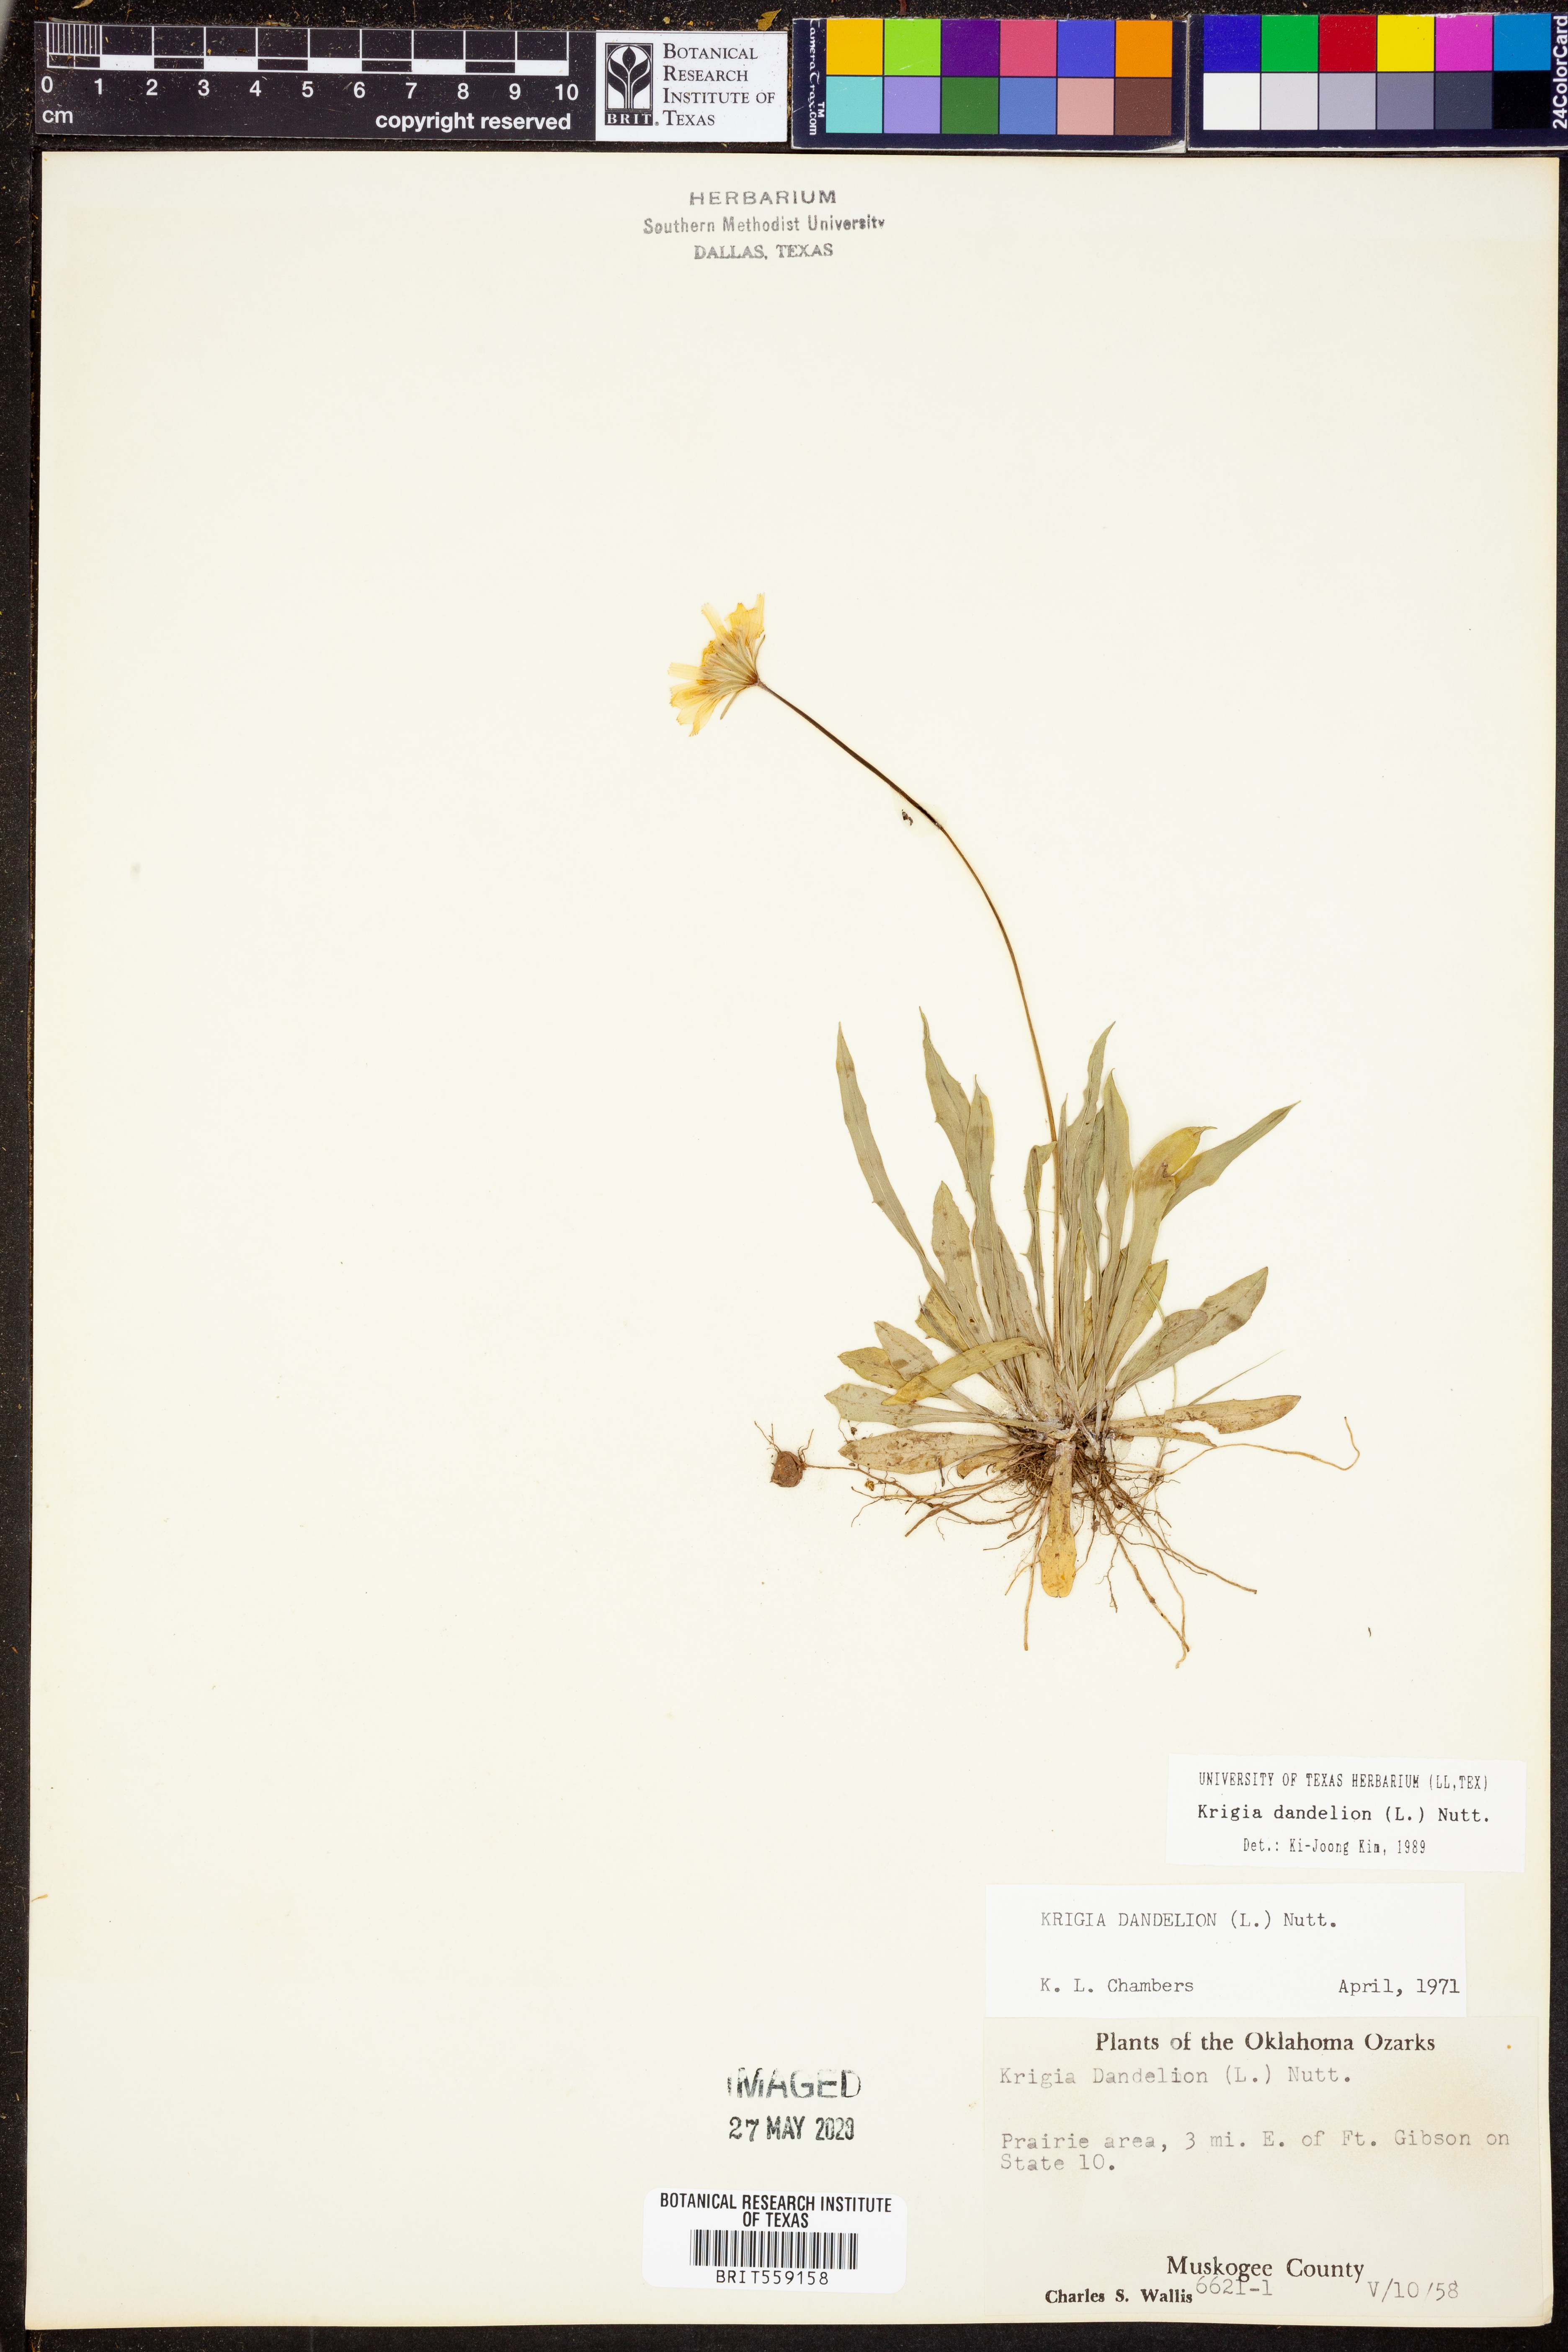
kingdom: Plantae
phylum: Tracheophyta
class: Magnoliopsida
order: Asterales
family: Asteraceae
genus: Krigia
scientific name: Krigia dandelion
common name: Colonial dwarf-dandelion
